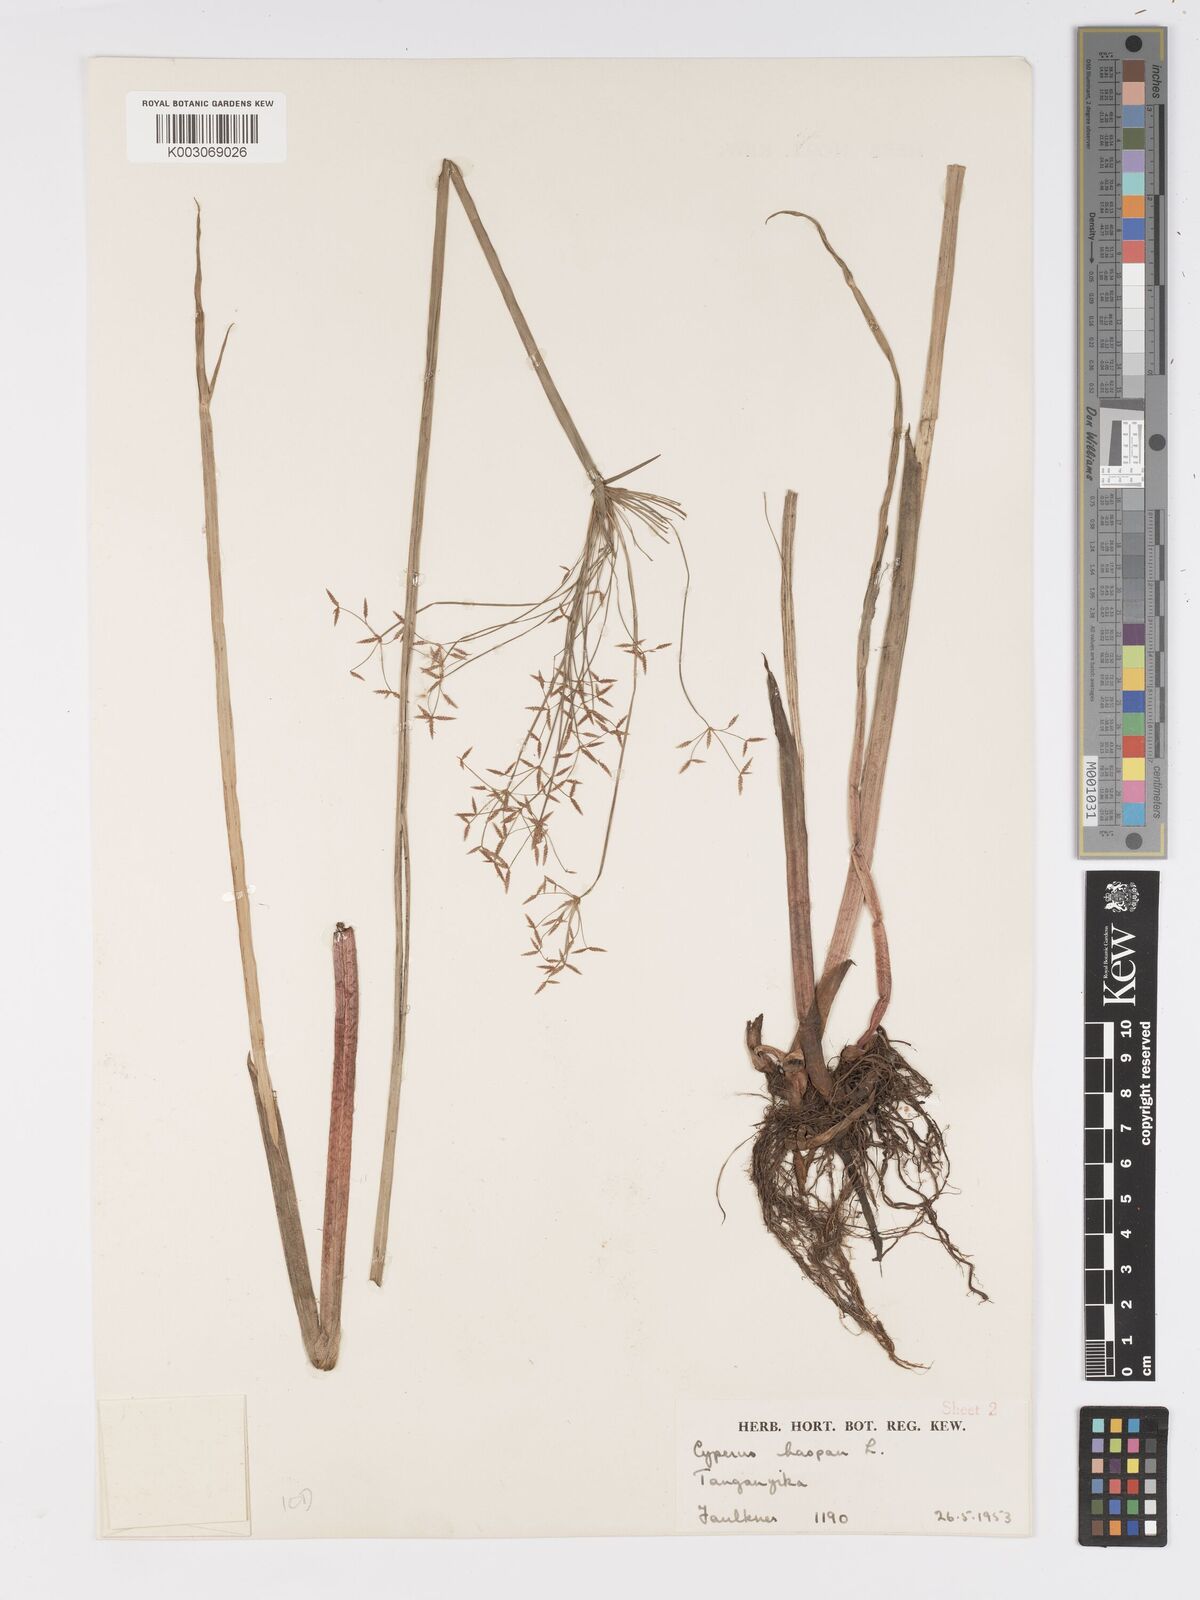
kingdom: Plantae
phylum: Tracheophyta
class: Liliopsida
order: Poales
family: Cyperaceae
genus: Cyperus
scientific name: Cyperus haspan
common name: Haspan flatsedge
